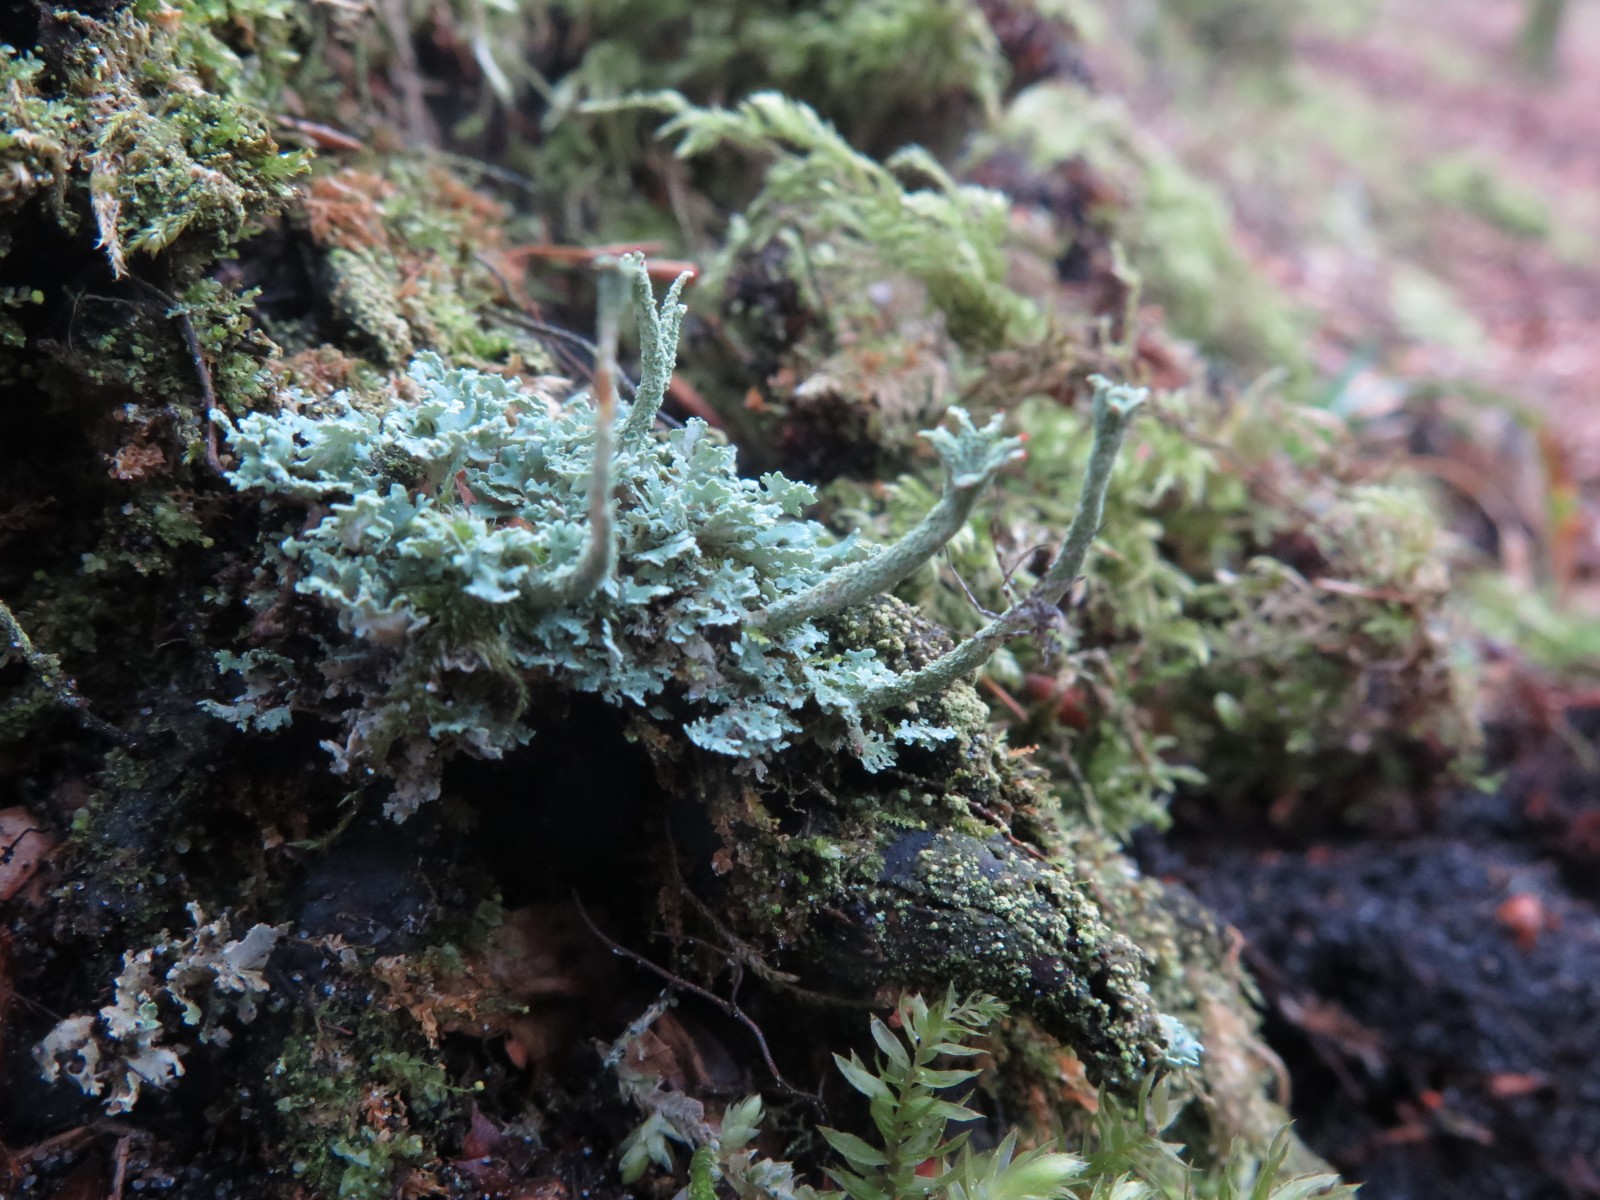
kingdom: Fungi
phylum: Ascomycota
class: Lecanoromycetes
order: Lecanorales
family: Cladoniaceae
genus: Cladonia
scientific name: Cladonia polydactyla
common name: vifte-bægerlav
